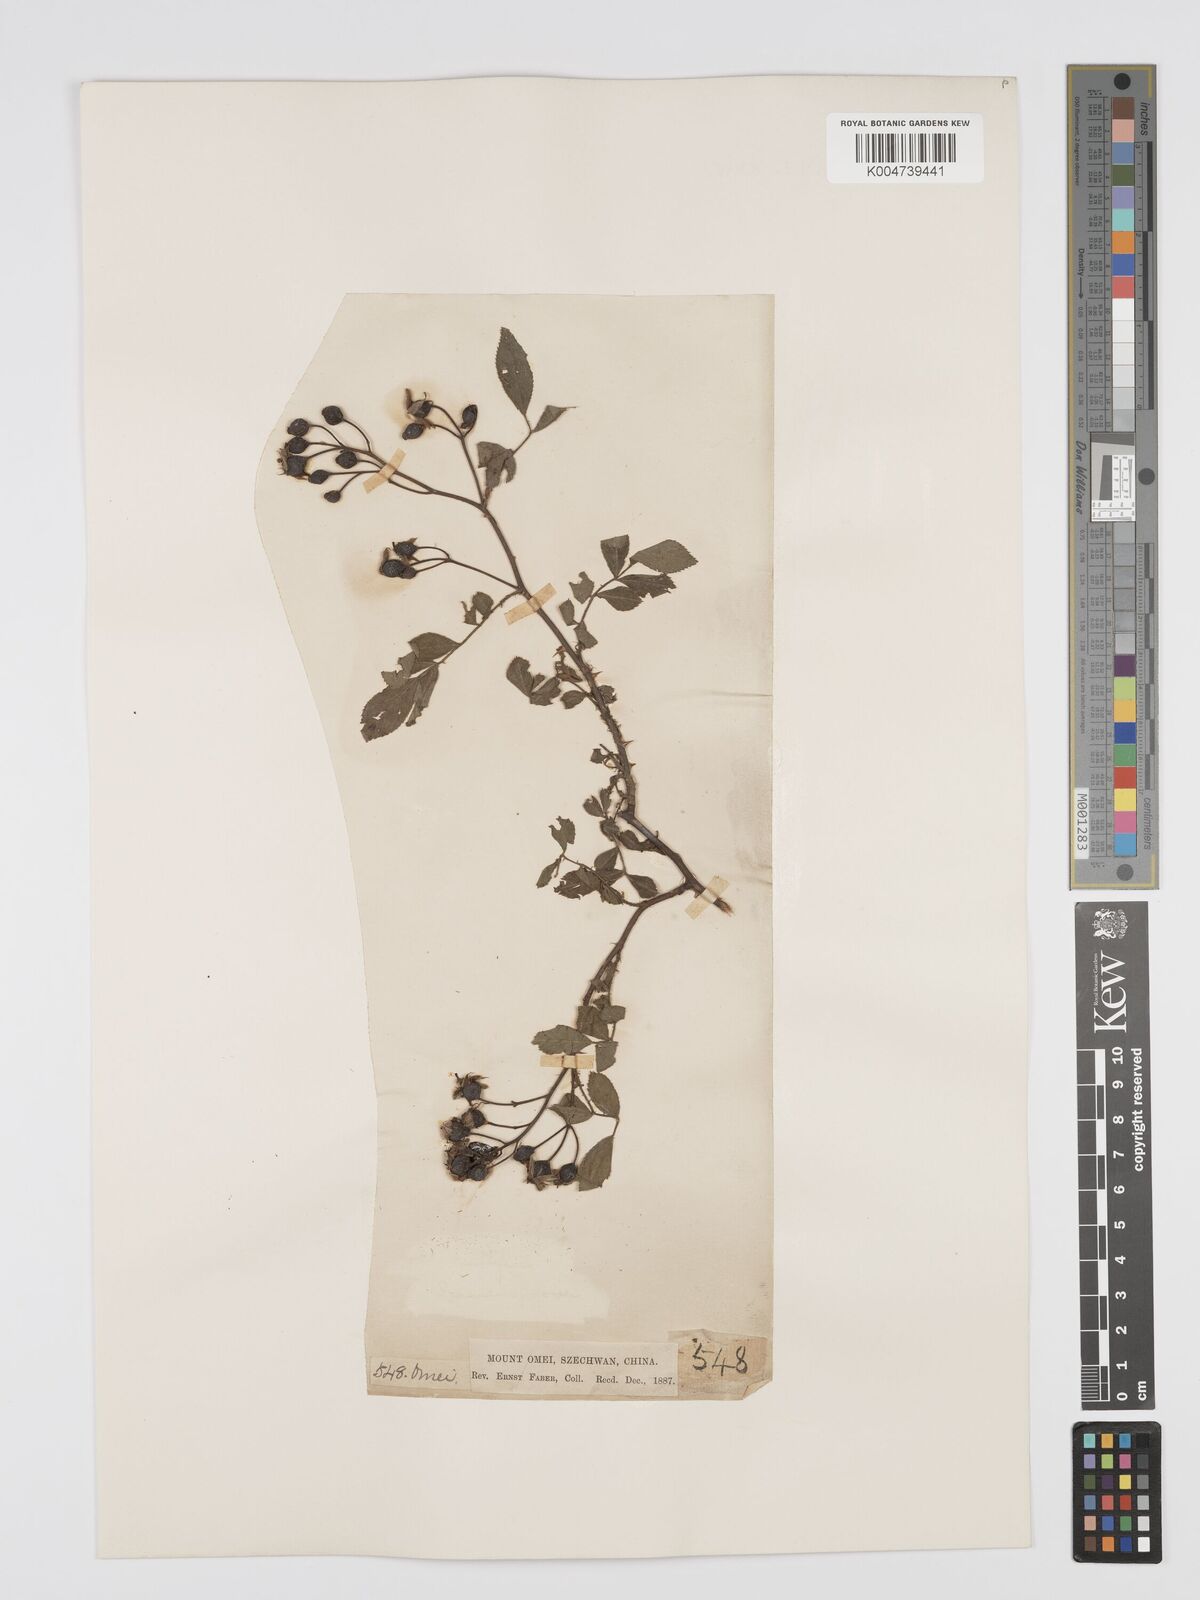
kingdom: Plantae
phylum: Tracheophyta
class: Magnoliopsida
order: Rosales
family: Rosaceae
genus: Rosa
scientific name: Rosa
